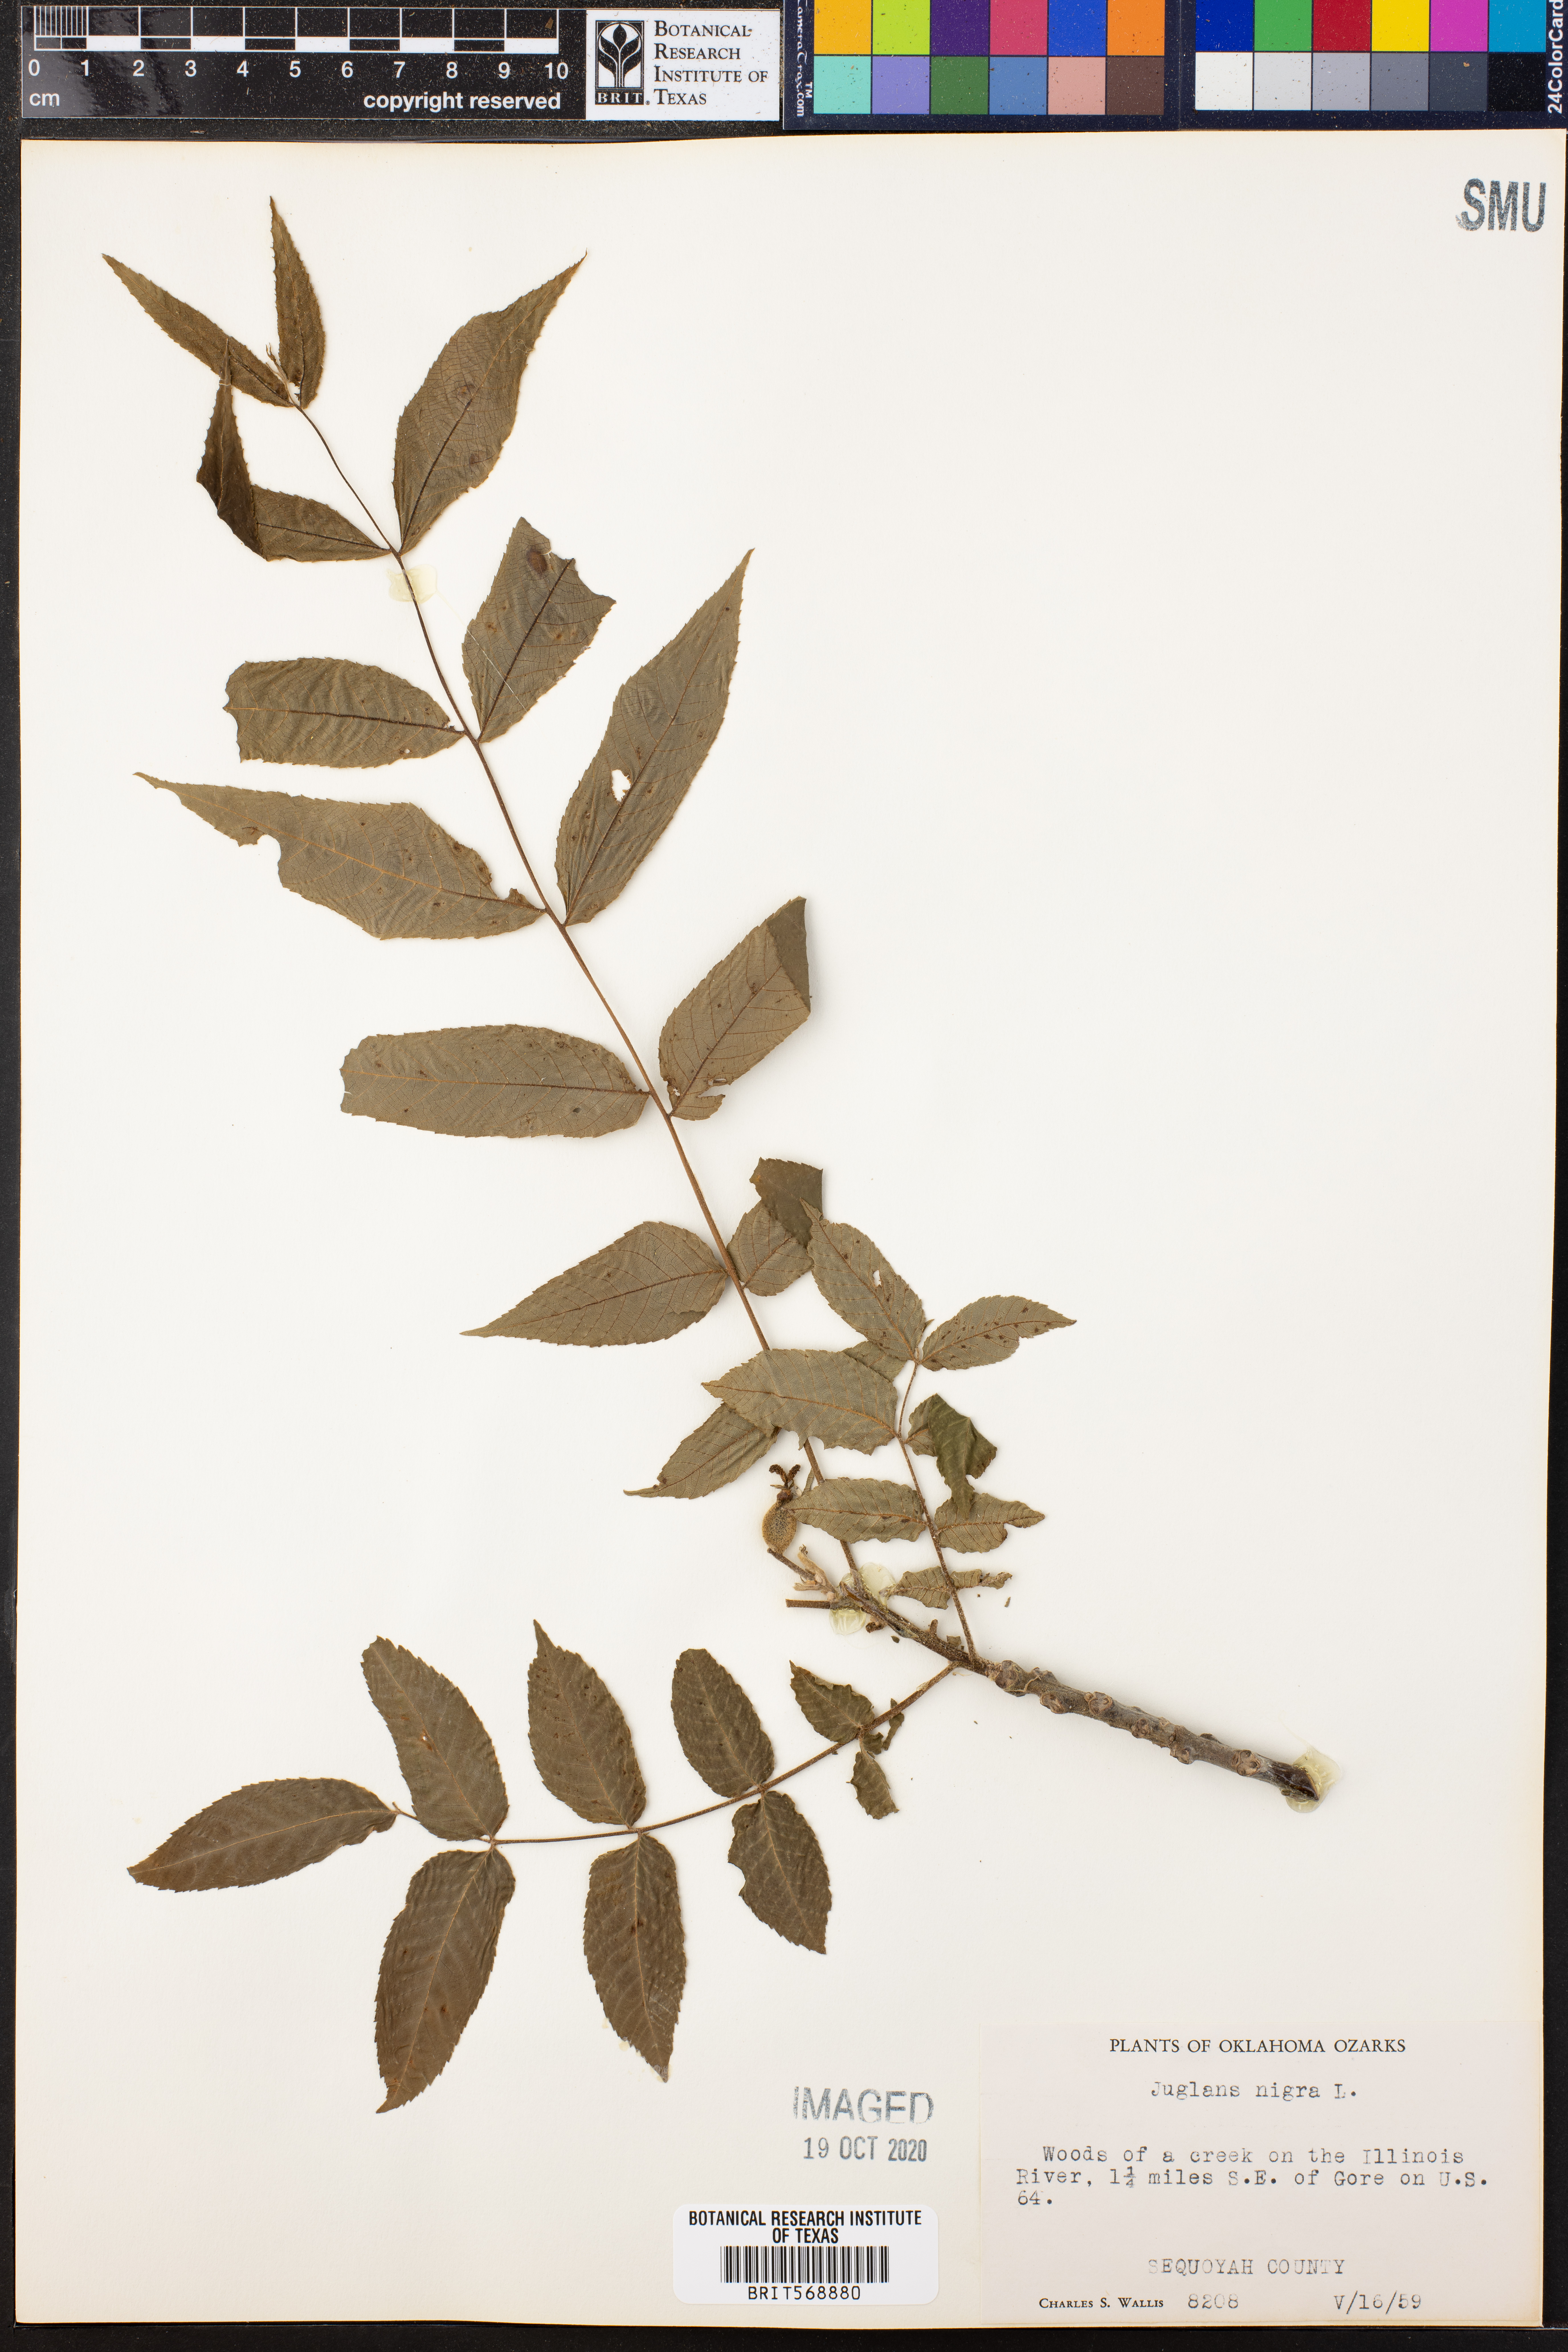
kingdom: Plantae
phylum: Tracheophyta
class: Magnoliopsida
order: Fagales
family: Juglandaceae
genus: Juglans
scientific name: Juglans nigra
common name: Black walnut
